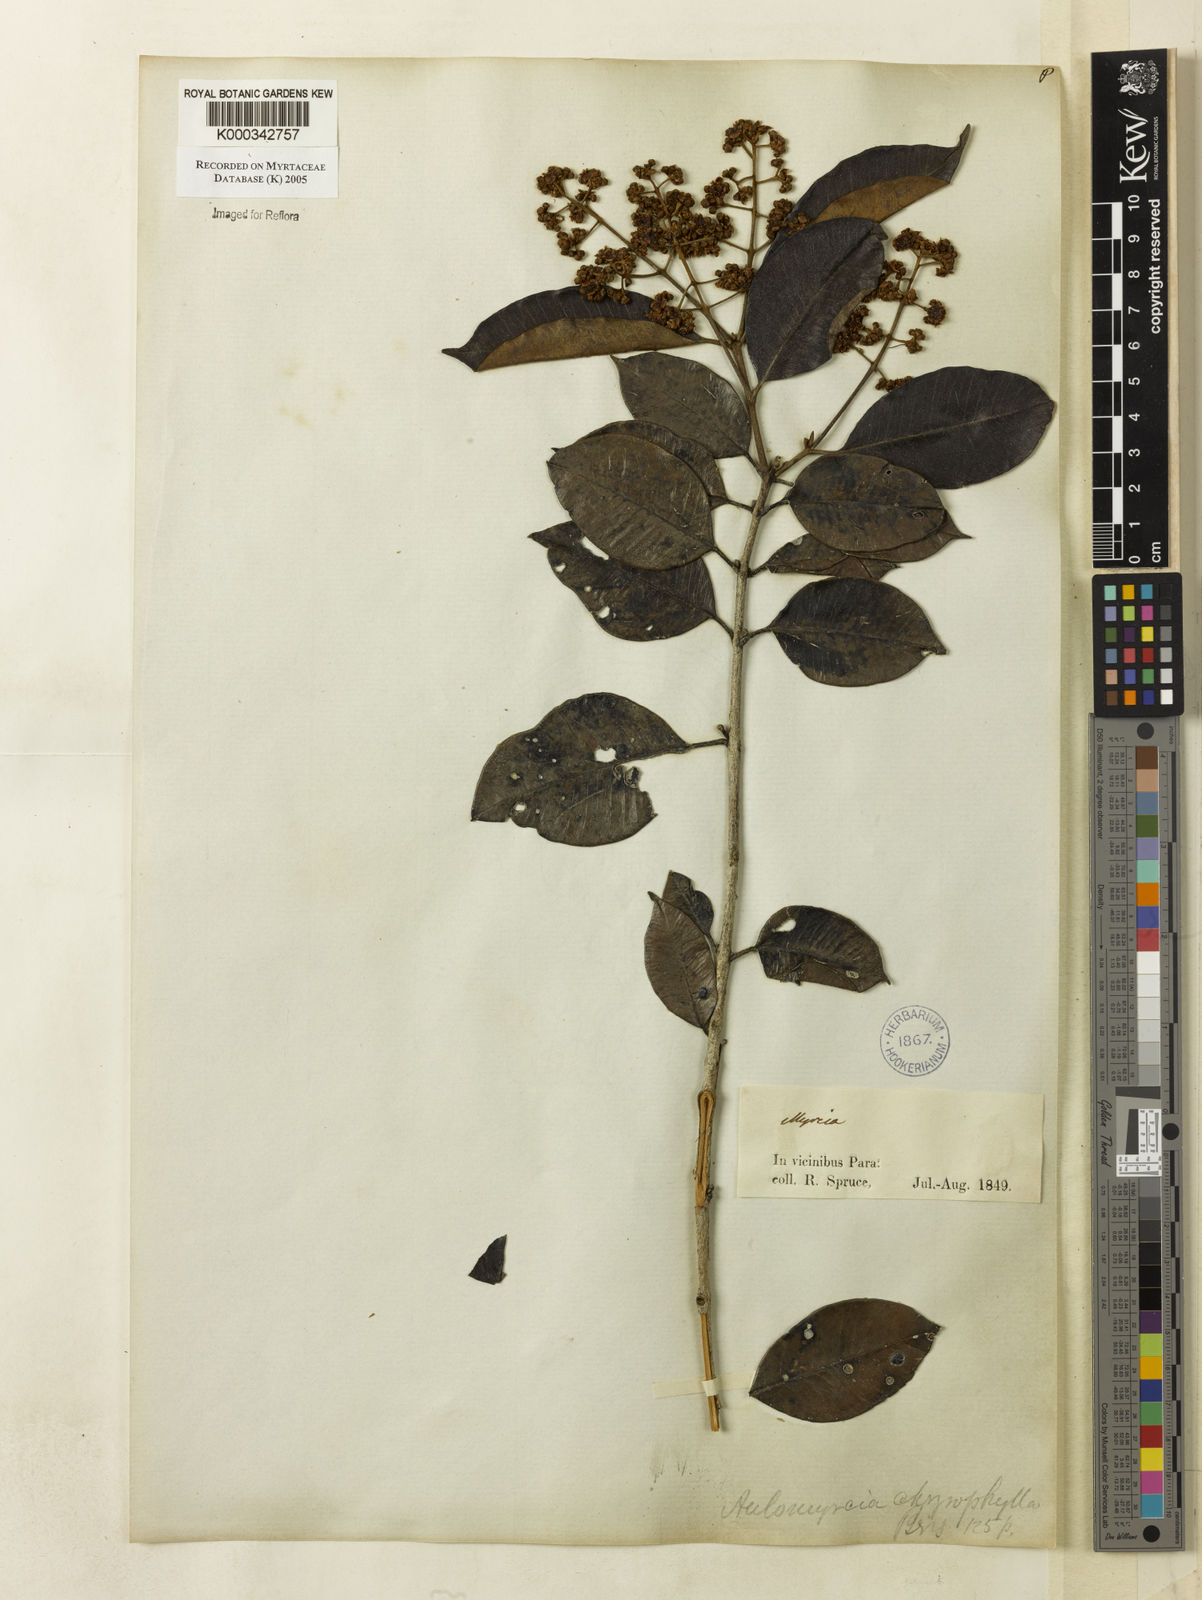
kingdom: Plantae
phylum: Tracheophyta
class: Magnoliopsida
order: Myrtales
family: Myrtaceae
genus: Myrcia
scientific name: Myrcia cuprea
